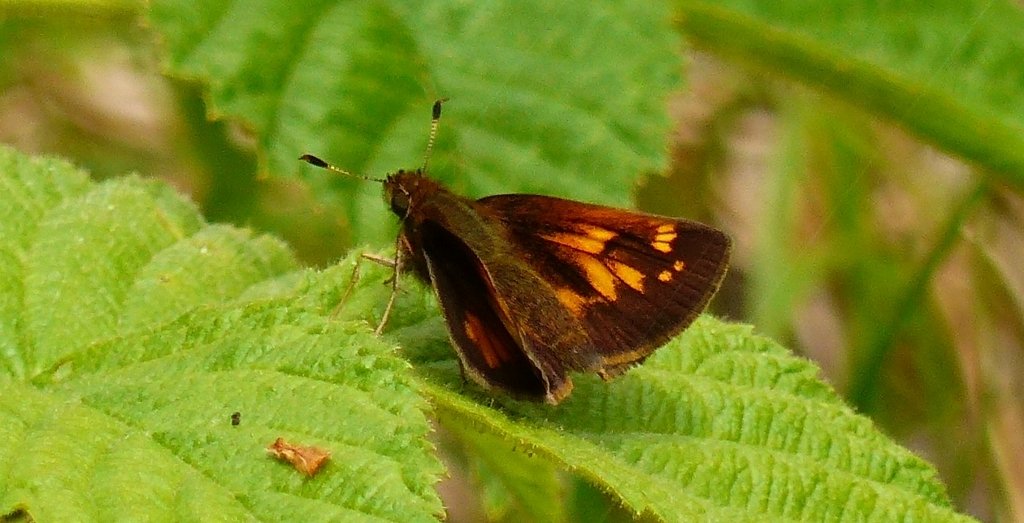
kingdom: Animalia
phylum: Arthropoda
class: Insecta
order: Lepidoptera
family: Hesperiidae
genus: Lon
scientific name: Lon hobomok
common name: Hobomok Skipper
